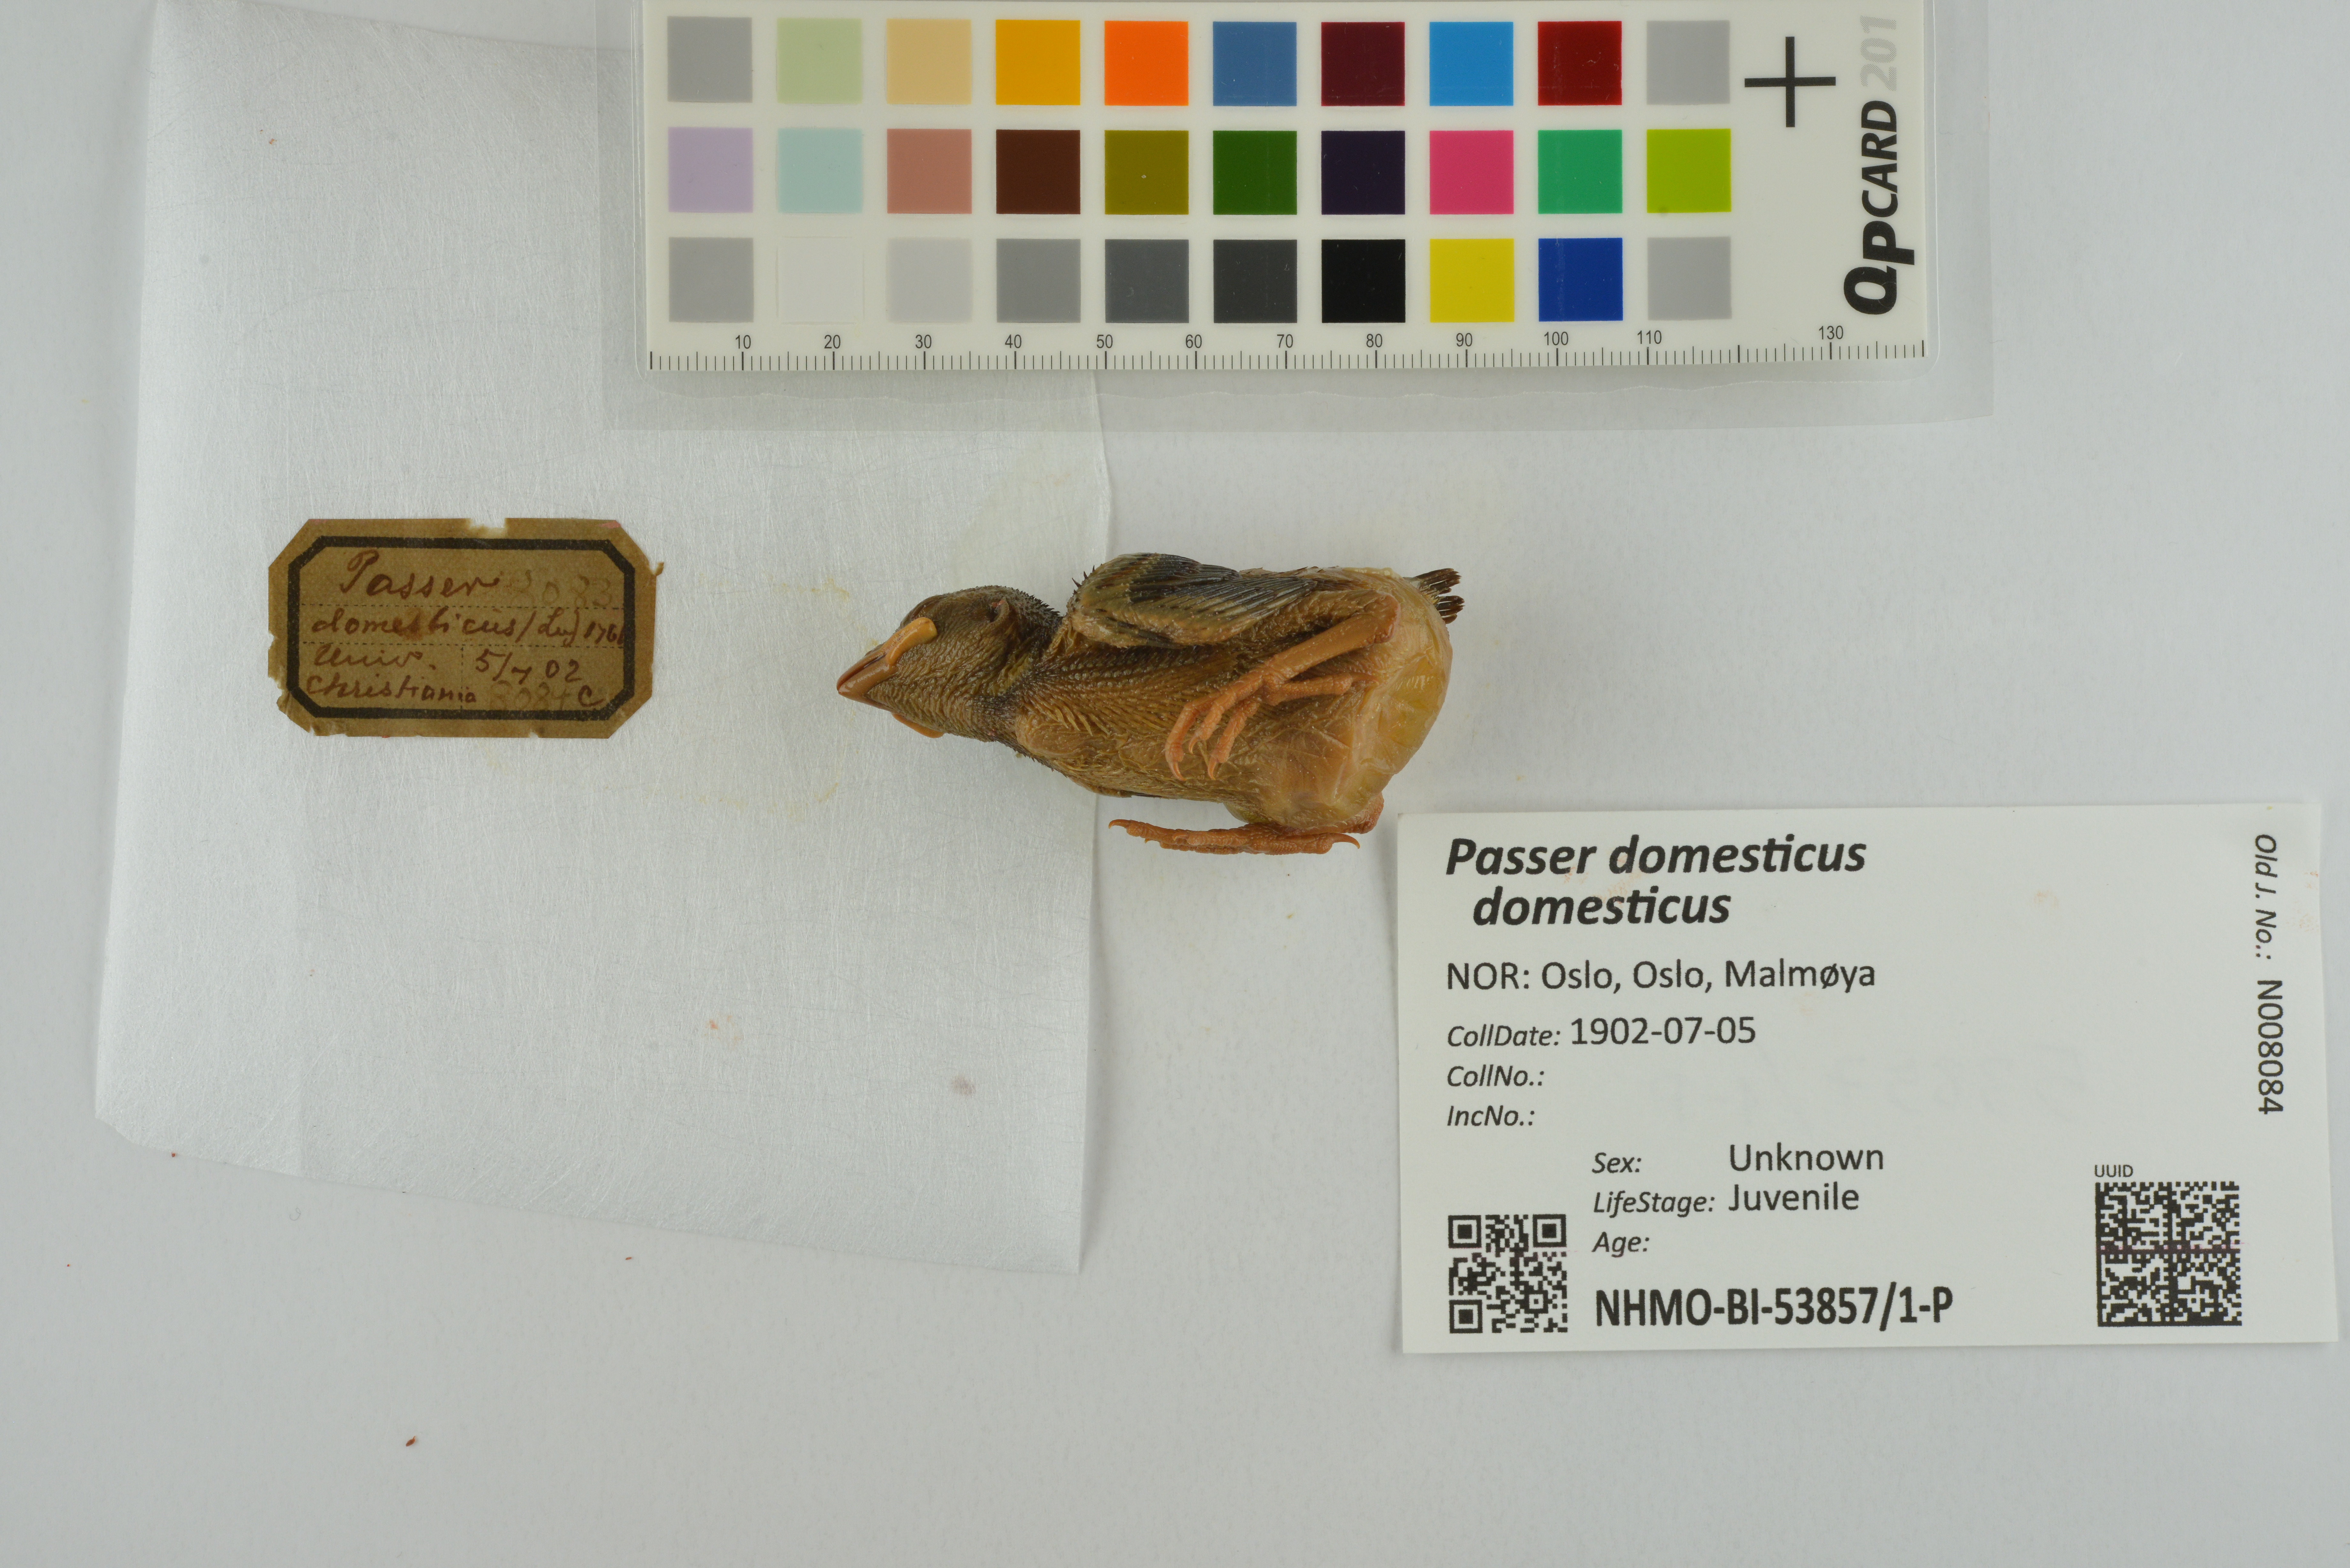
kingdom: Animalia
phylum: Chordata
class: Aves
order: Passeriformes
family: Passeridae
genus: Passer
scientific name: Passer domesticus
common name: House sparrow
